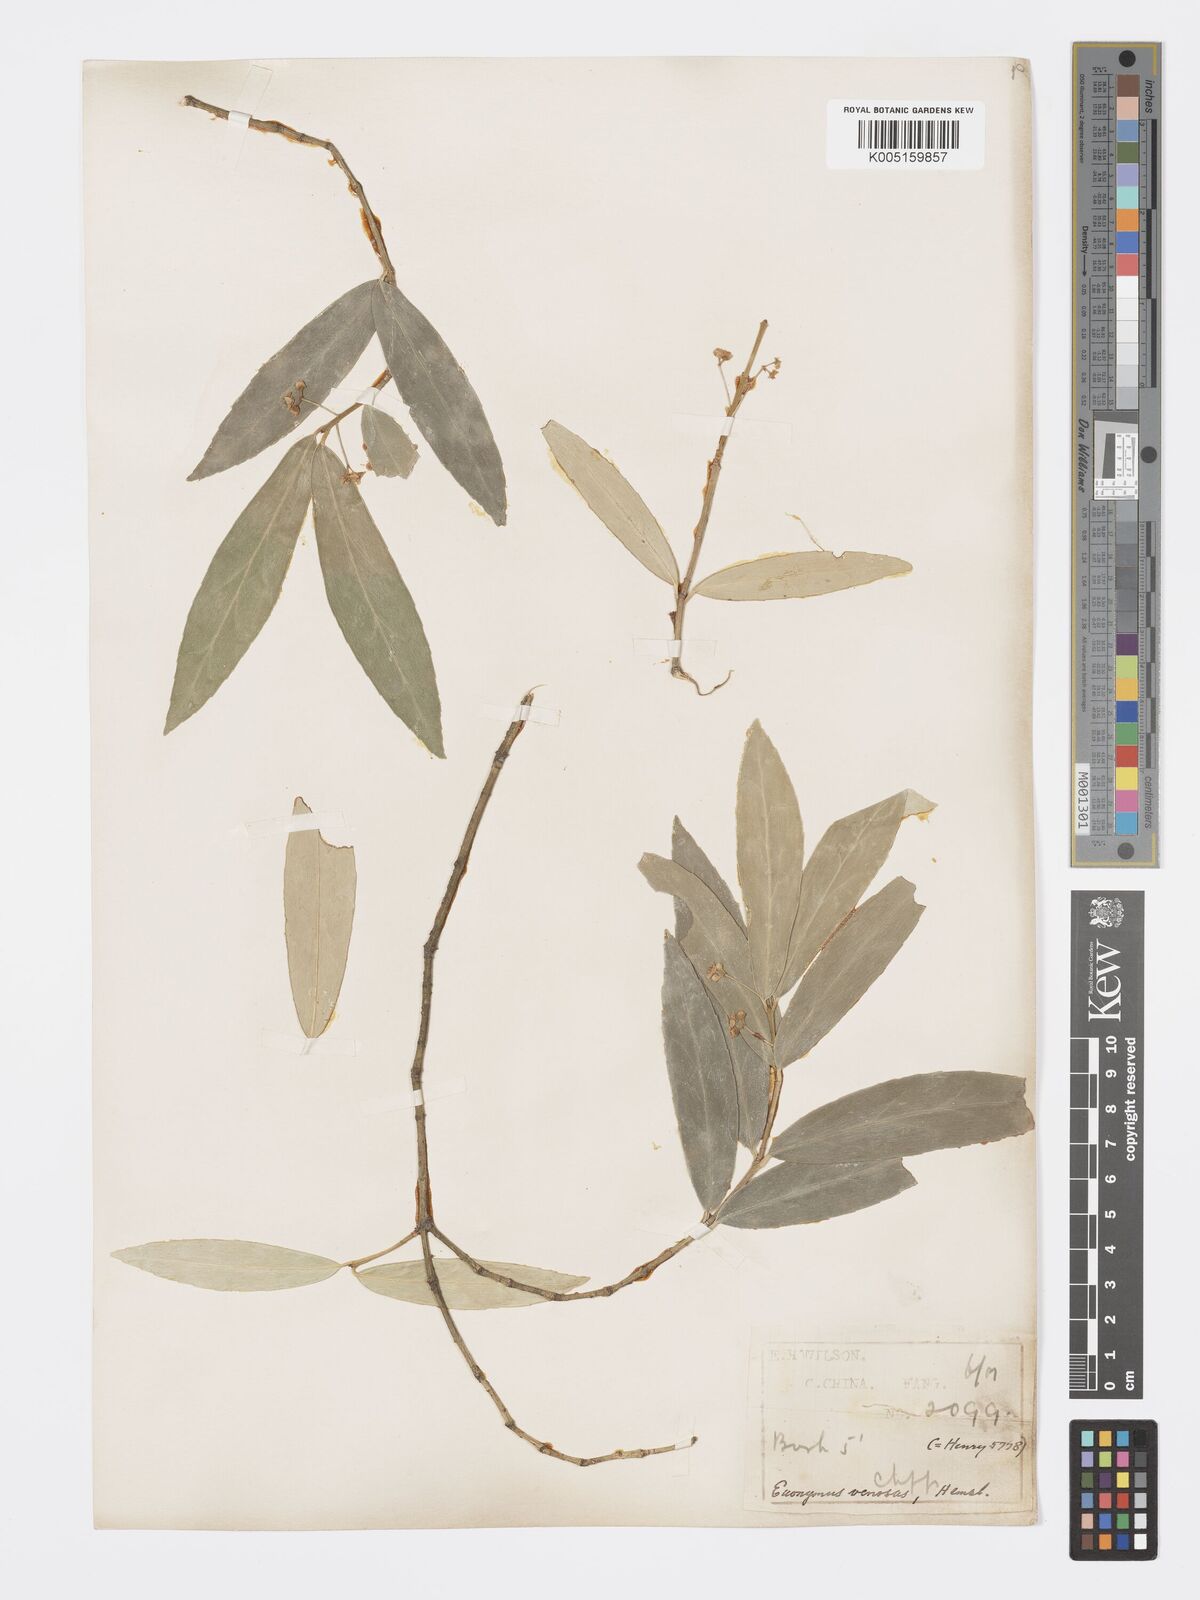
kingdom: Plantae
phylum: Tracheophyta
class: Magnoliopsida
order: Celastrales
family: Celastraceae
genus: Euonymus
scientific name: Euonymus venosus
